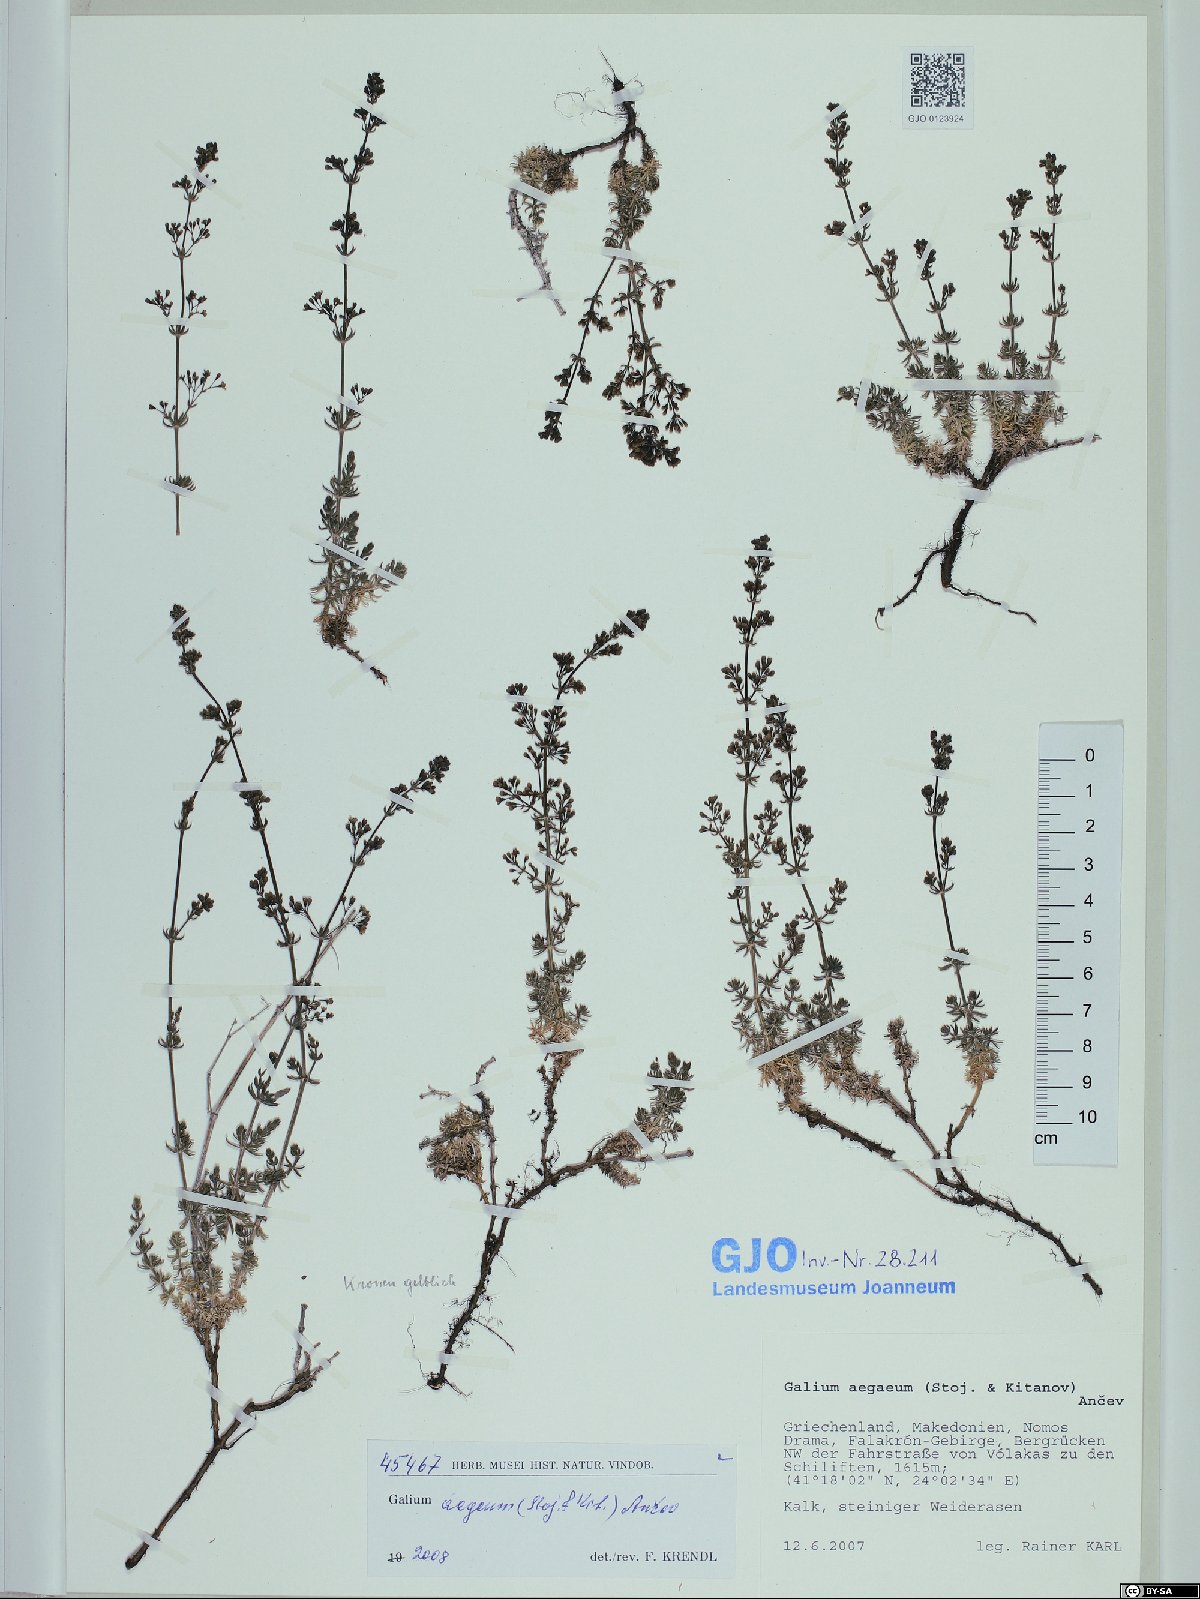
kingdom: Plantae
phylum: Tracheophyta
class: Magnoliopsida
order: Gentianales
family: Rubiaceae
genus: Galium
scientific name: Galium aegeum
